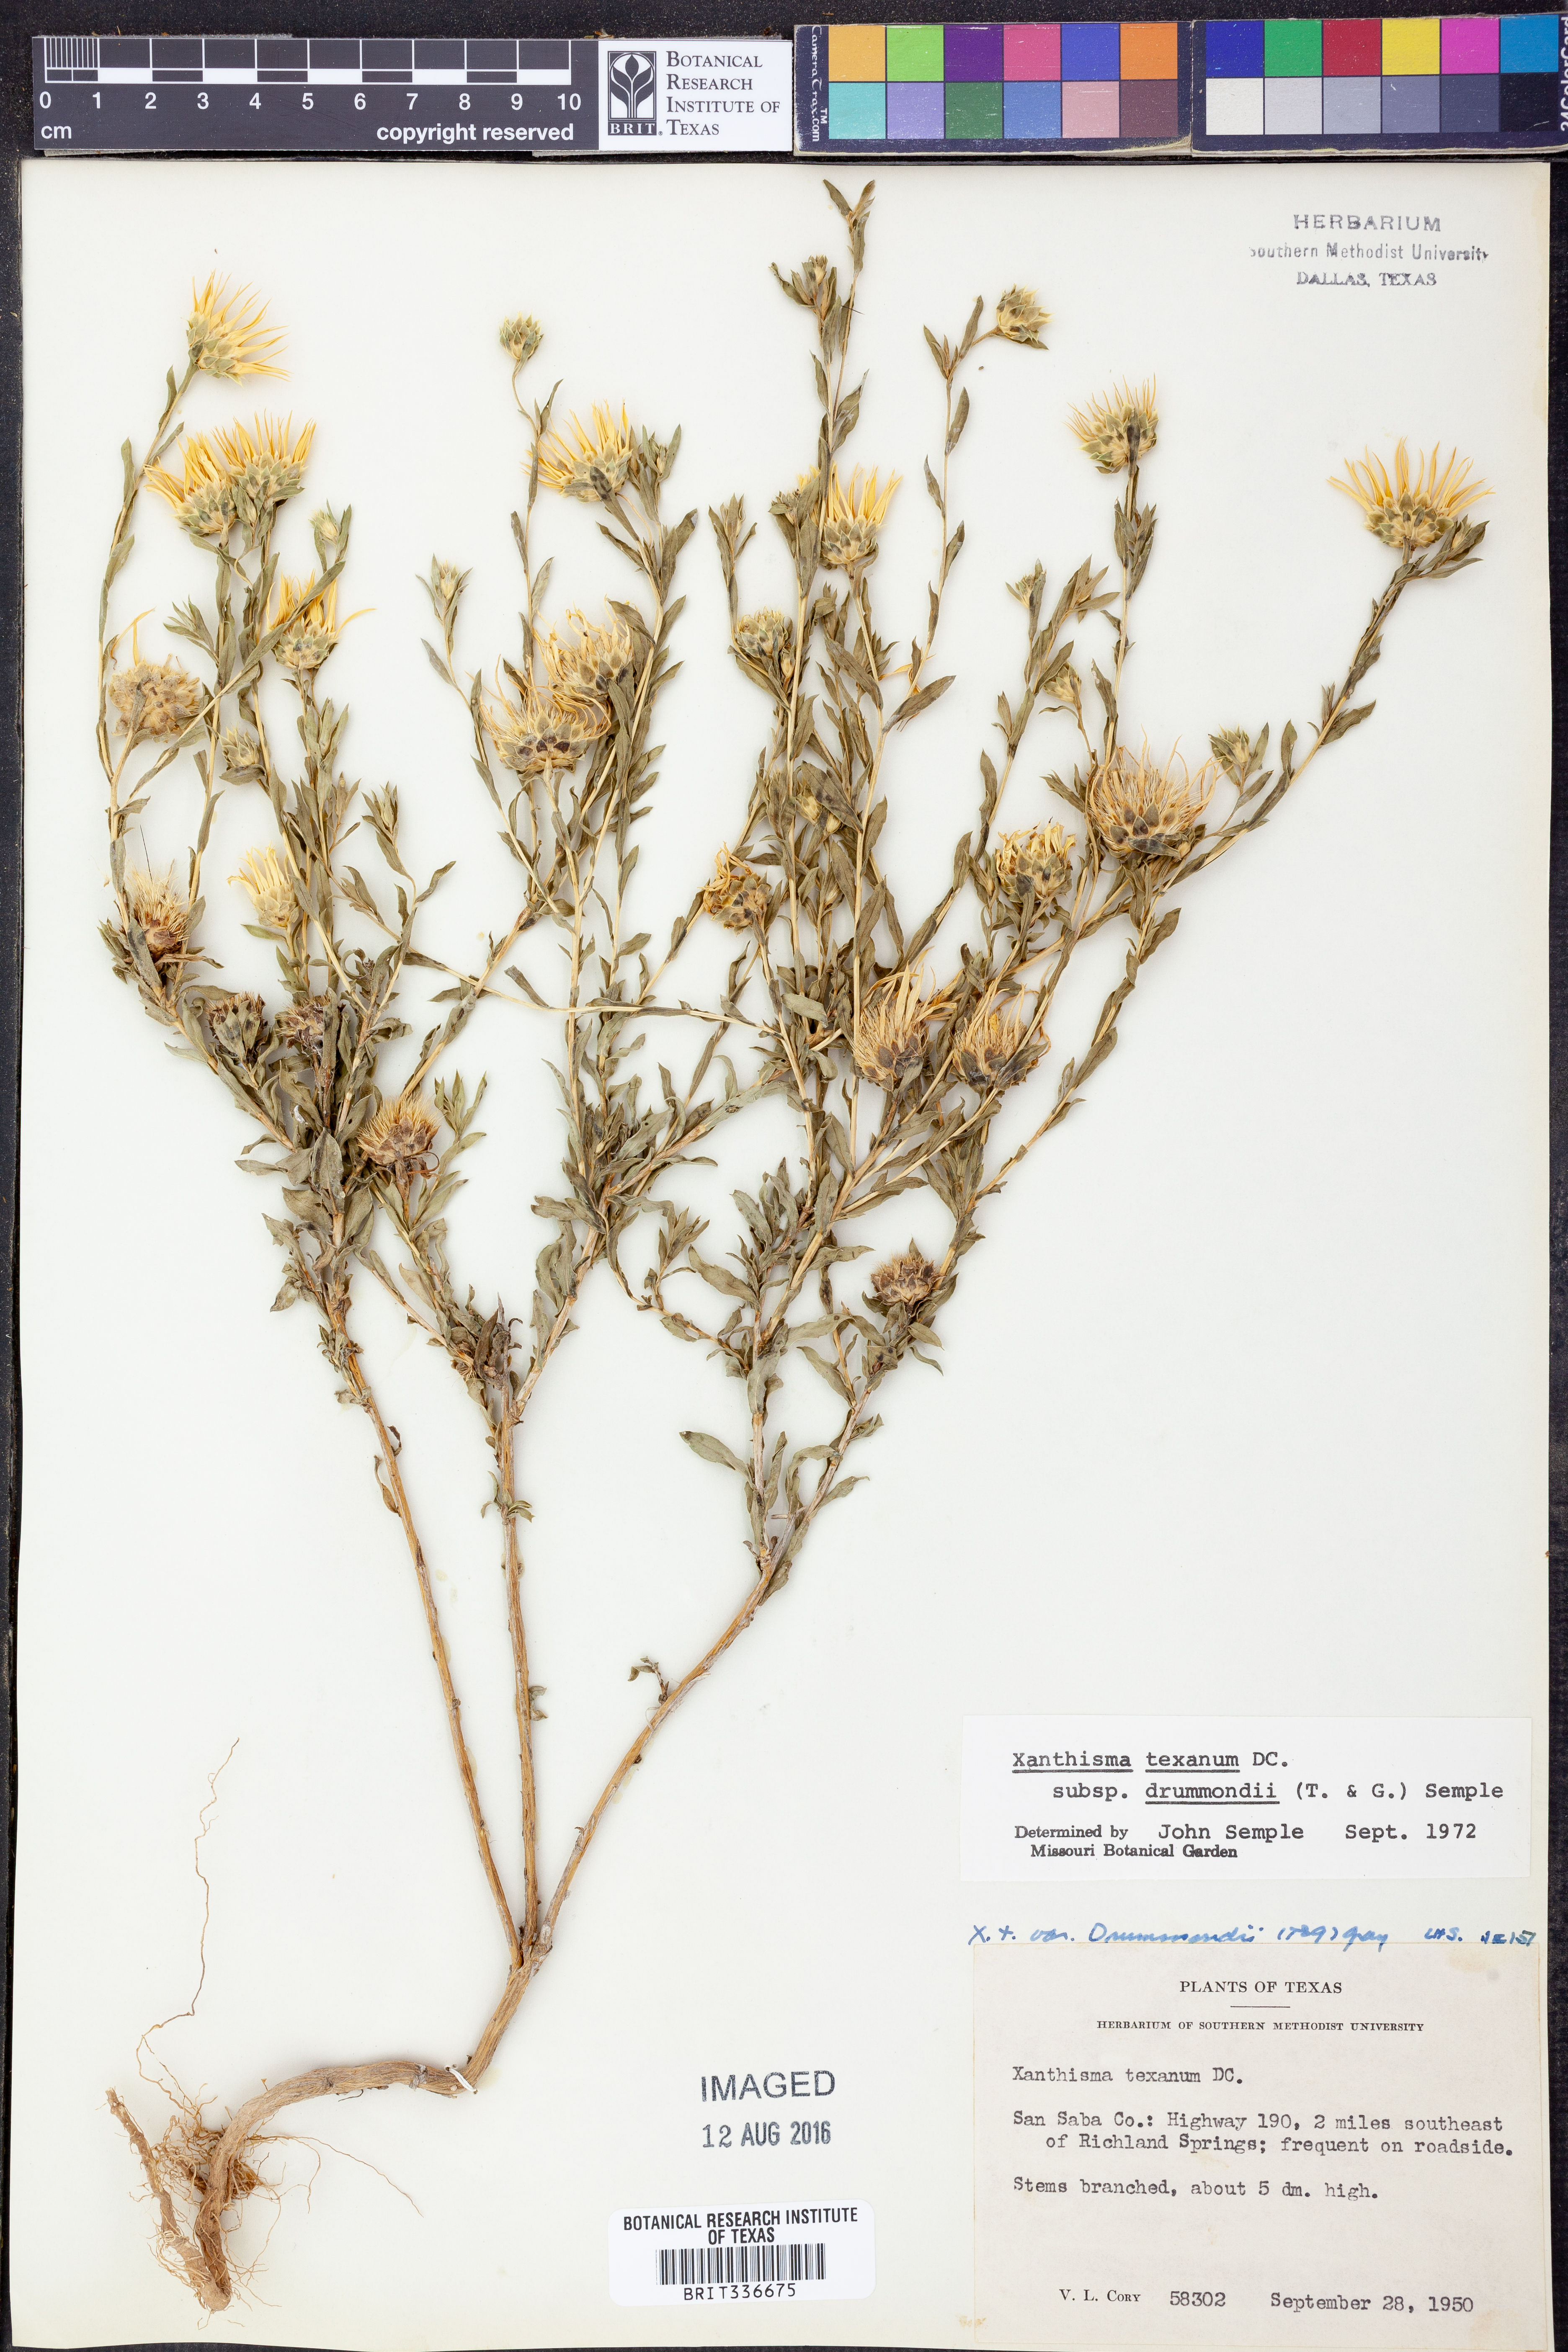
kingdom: Plantae
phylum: Tracheophyta
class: Magnoliopsida
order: Asterales
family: Asteraceae
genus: Xanthisma
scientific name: Xanthisma texanum
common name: Texas sleepy daisy
